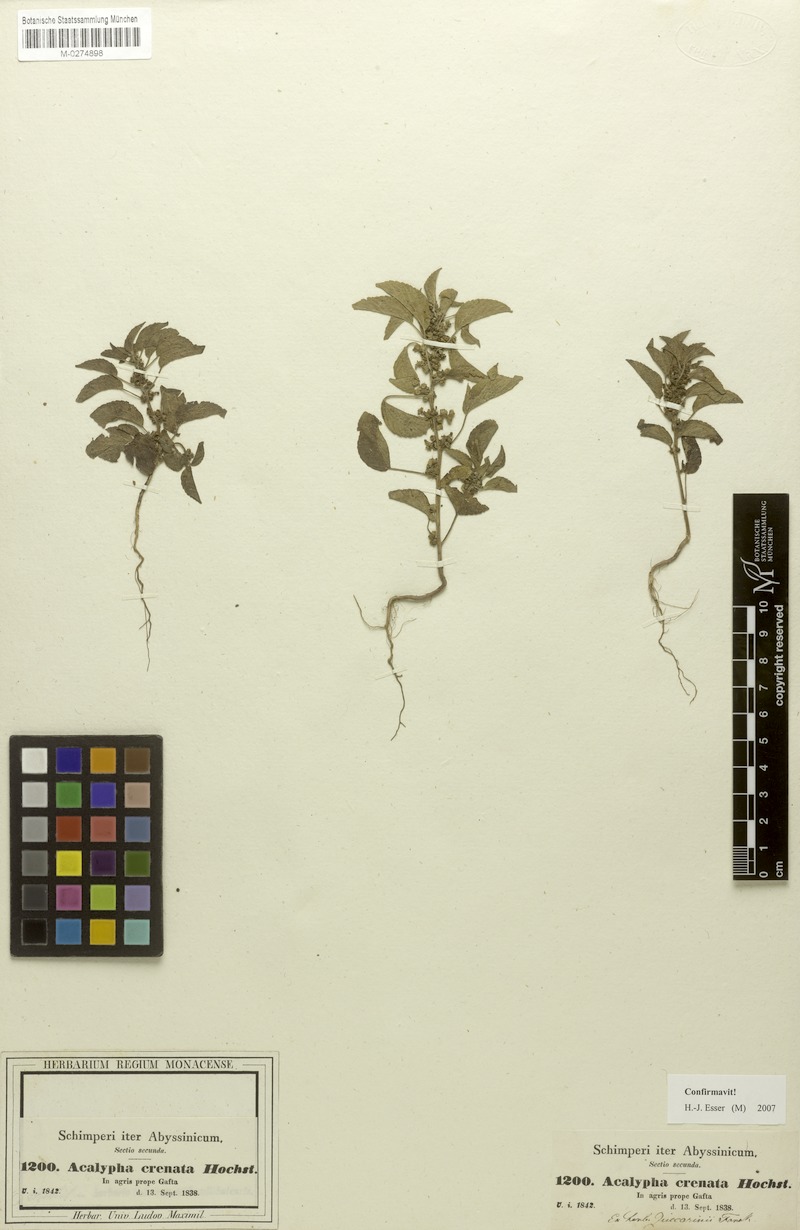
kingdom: Plantae
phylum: Tracheophyta
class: Magnoliopsida
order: Malpighiales
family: Euphorbiaceae
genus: Acalypha
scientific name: Acalypha crenata
